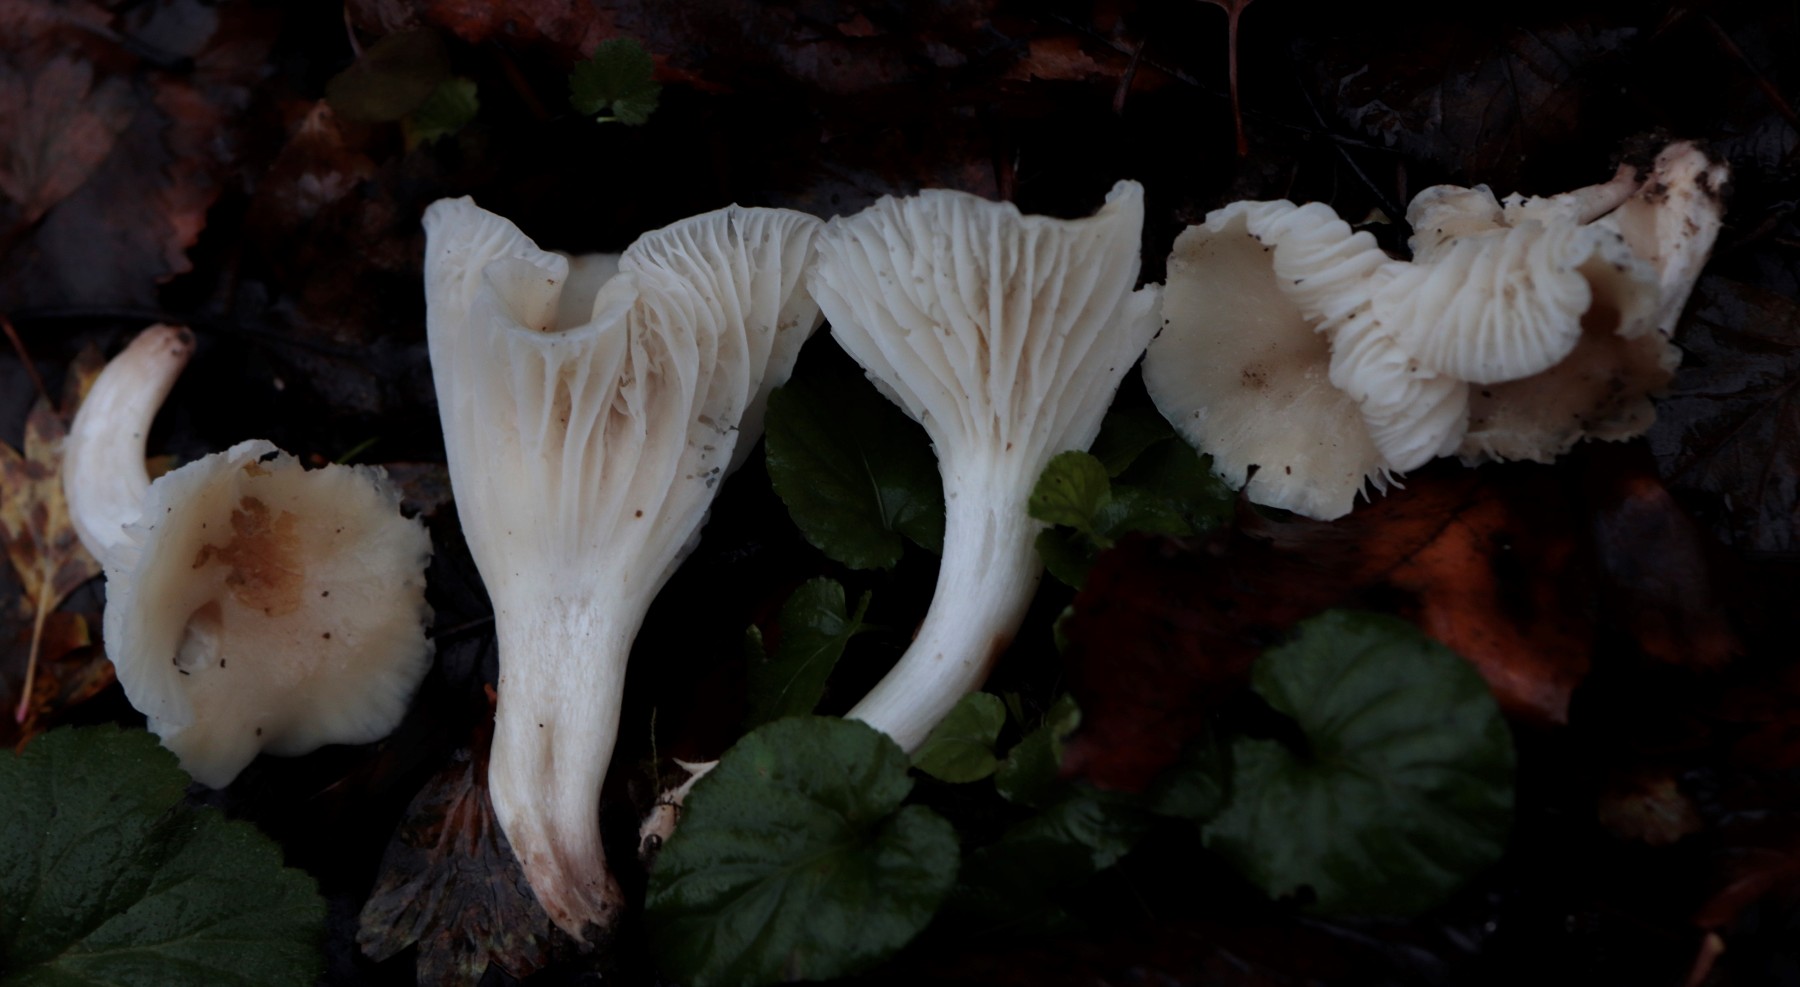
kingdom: Fungi
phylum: Basidiomycota
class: Agaricomycetes
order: Agaricales
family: Hygrophoraceae
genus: Cuphophyllus
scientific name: Cuphophyllus virgineus
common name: snehvid vokshat
